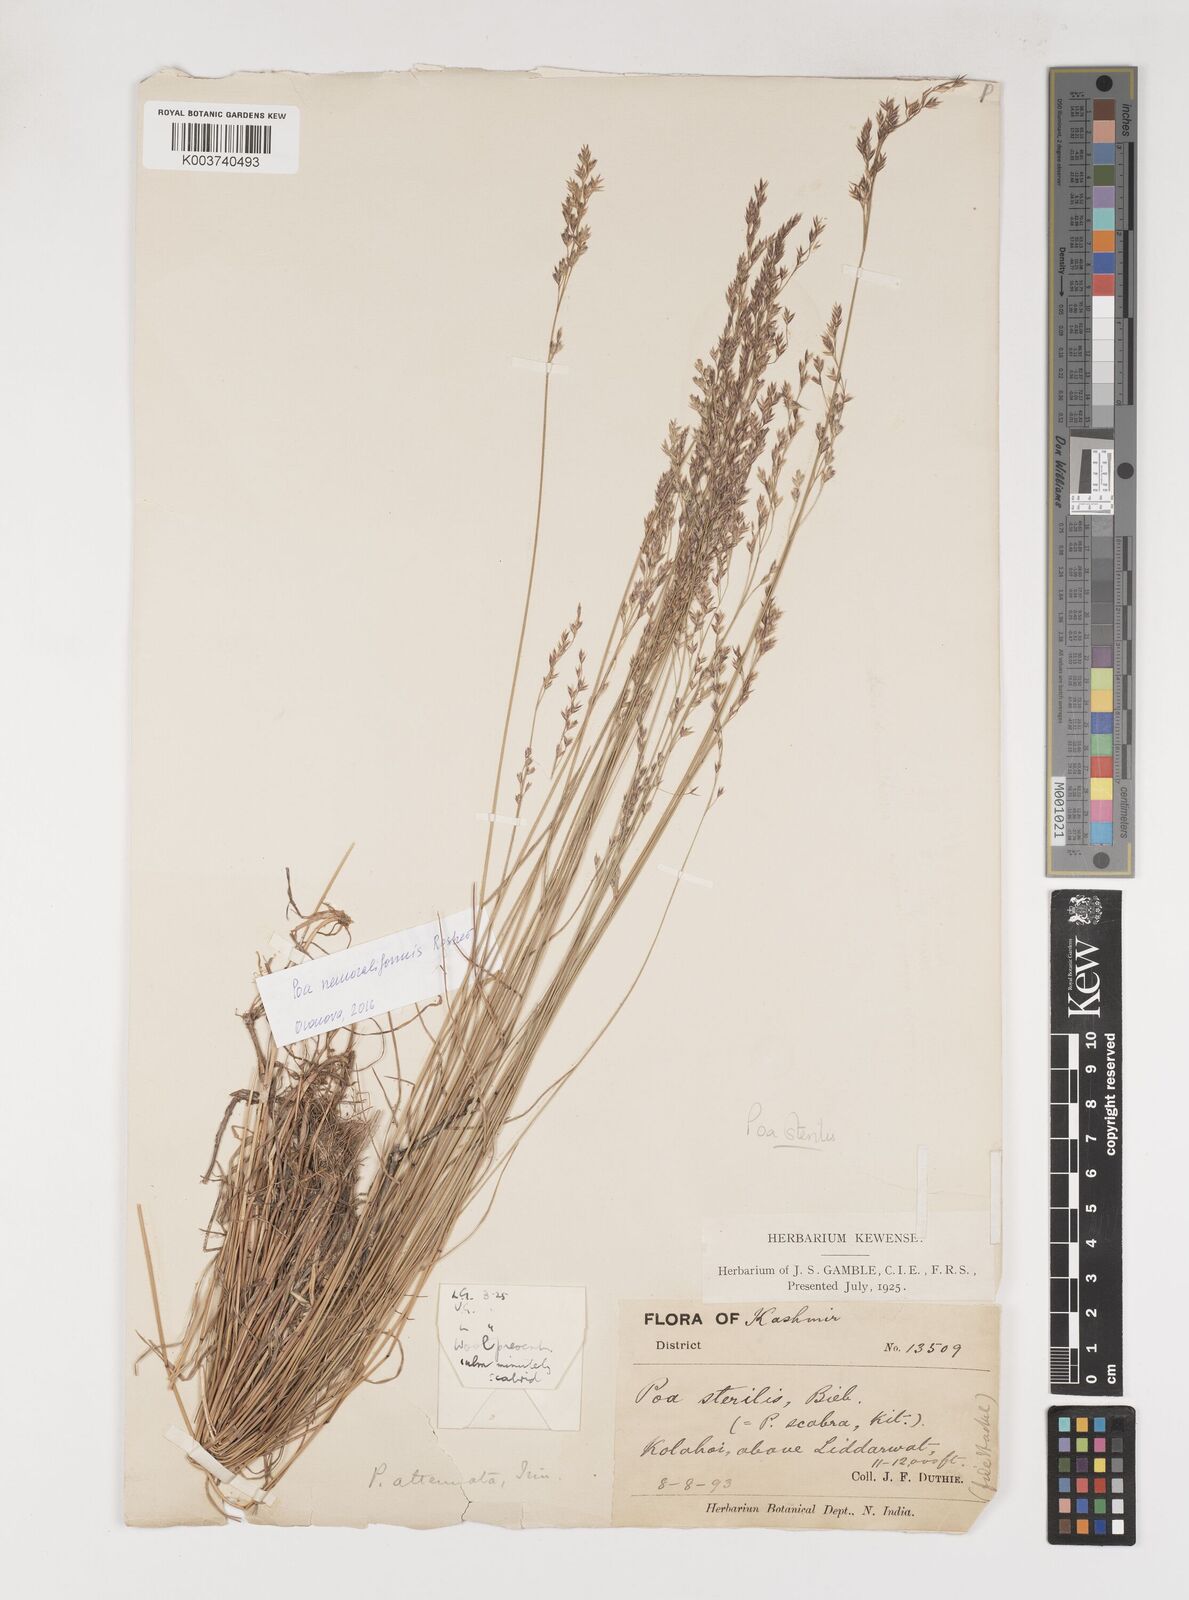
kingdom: Plantae
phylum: Tracheophyta
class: Liliopsida
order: Poales
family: Poaceae
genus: Poa
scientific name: Poa sterilis
